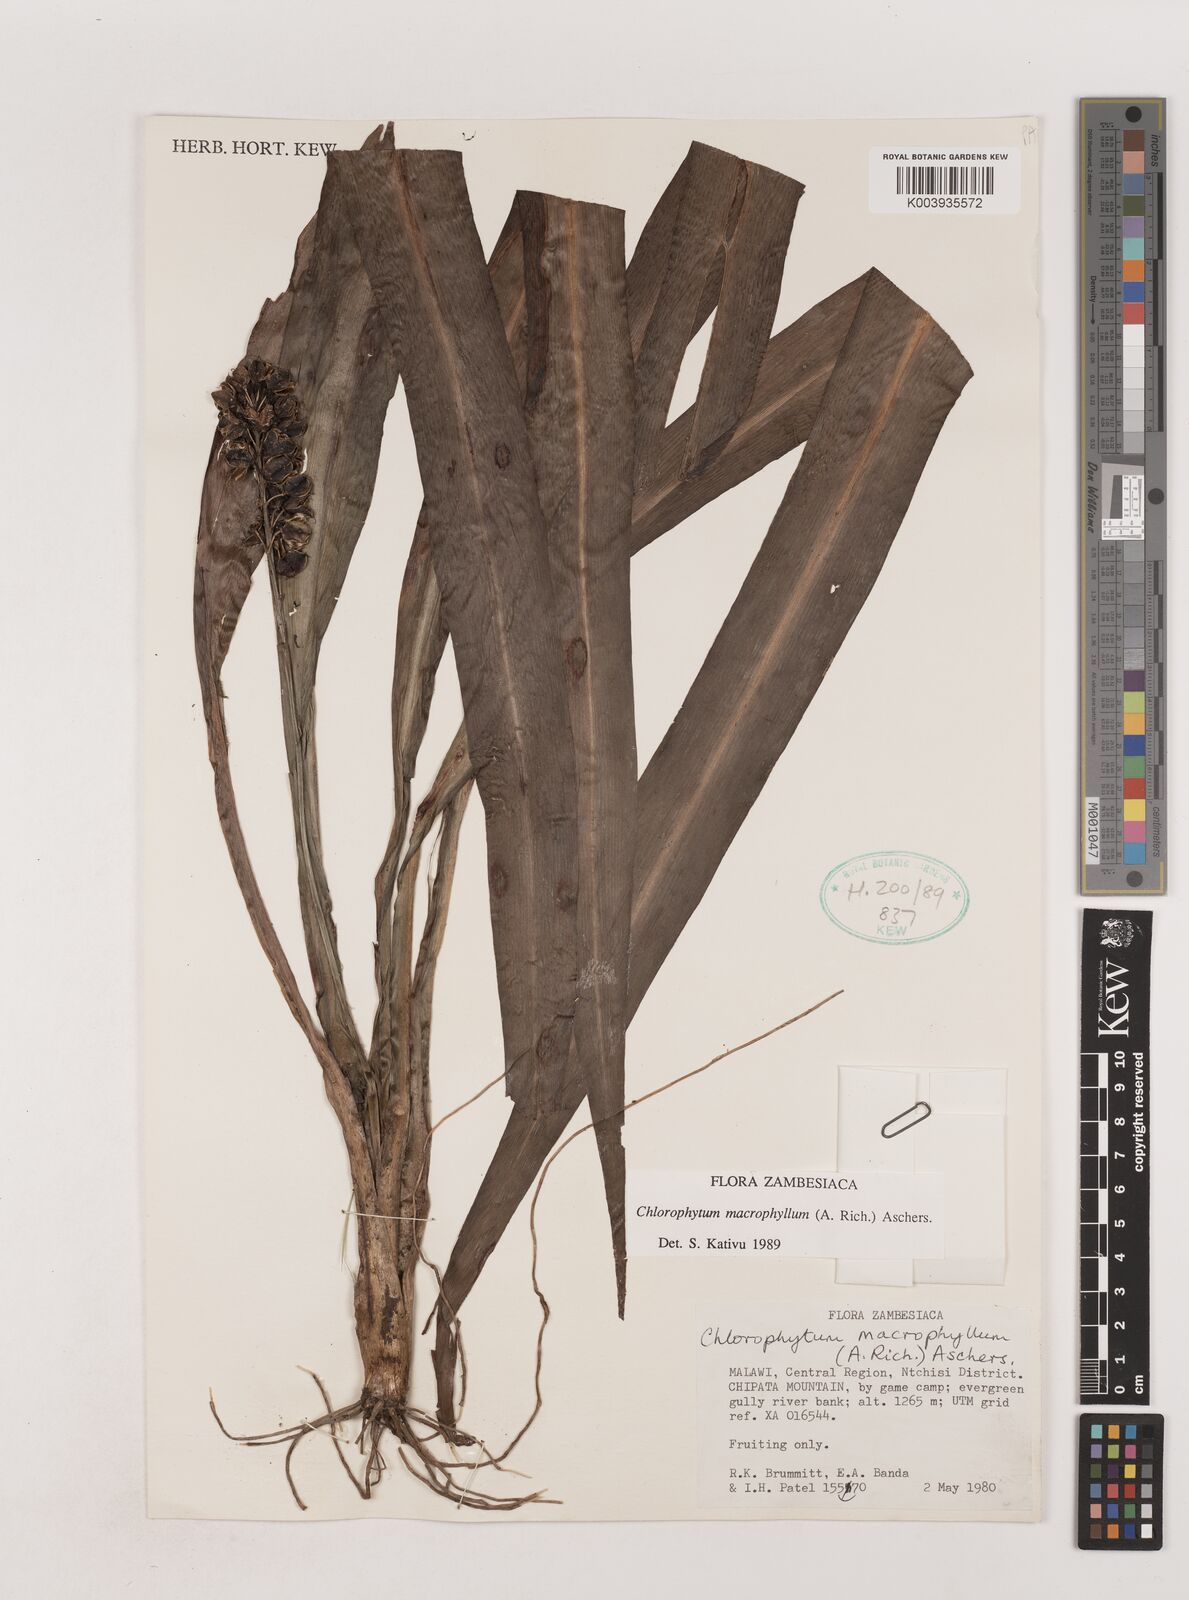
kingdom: Plantae
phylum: Tracheophyta
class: Liliopsida
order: Asparagales
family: Asparagaceae
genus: Chlorophytum
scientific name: Chlorophytum macrophyllum
